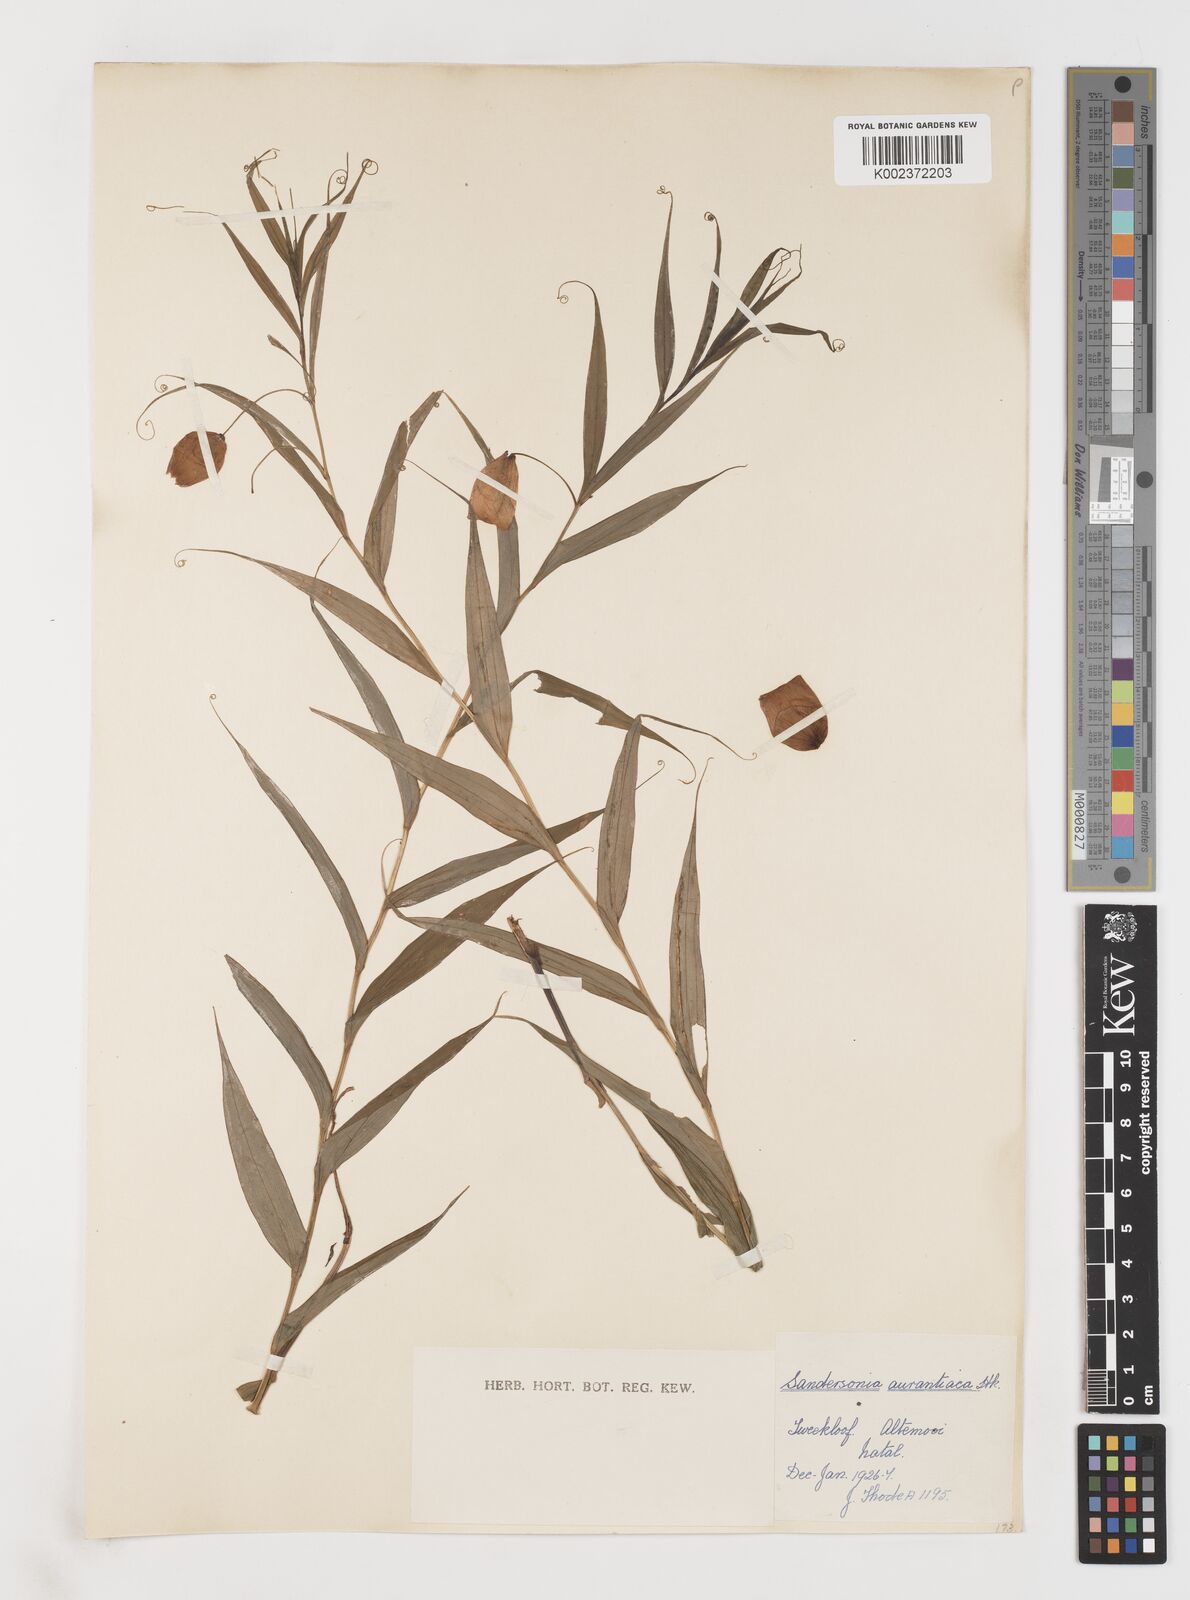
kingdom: Plantae
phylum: Tracheophyta
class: Liliopsida
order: Liliales
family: Colchicaceae
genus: Sandersonia
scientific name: Sandersonia aurantiaca
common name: Chinese-lantern-lily
